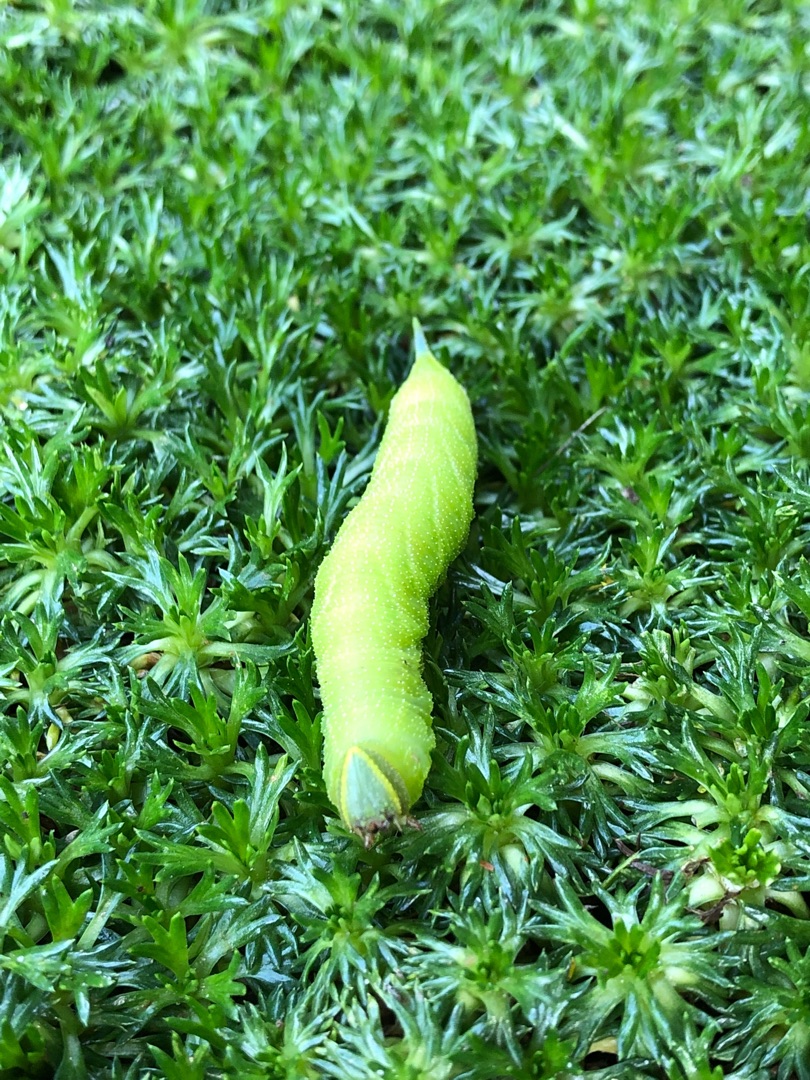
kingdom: Animalia
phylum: Arthropoda
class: Insecta
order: Lepidoptera
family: Sphingidae
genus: Smerinthus
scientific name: Smerinthus ocellata
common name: Aftenpåfugleøje
